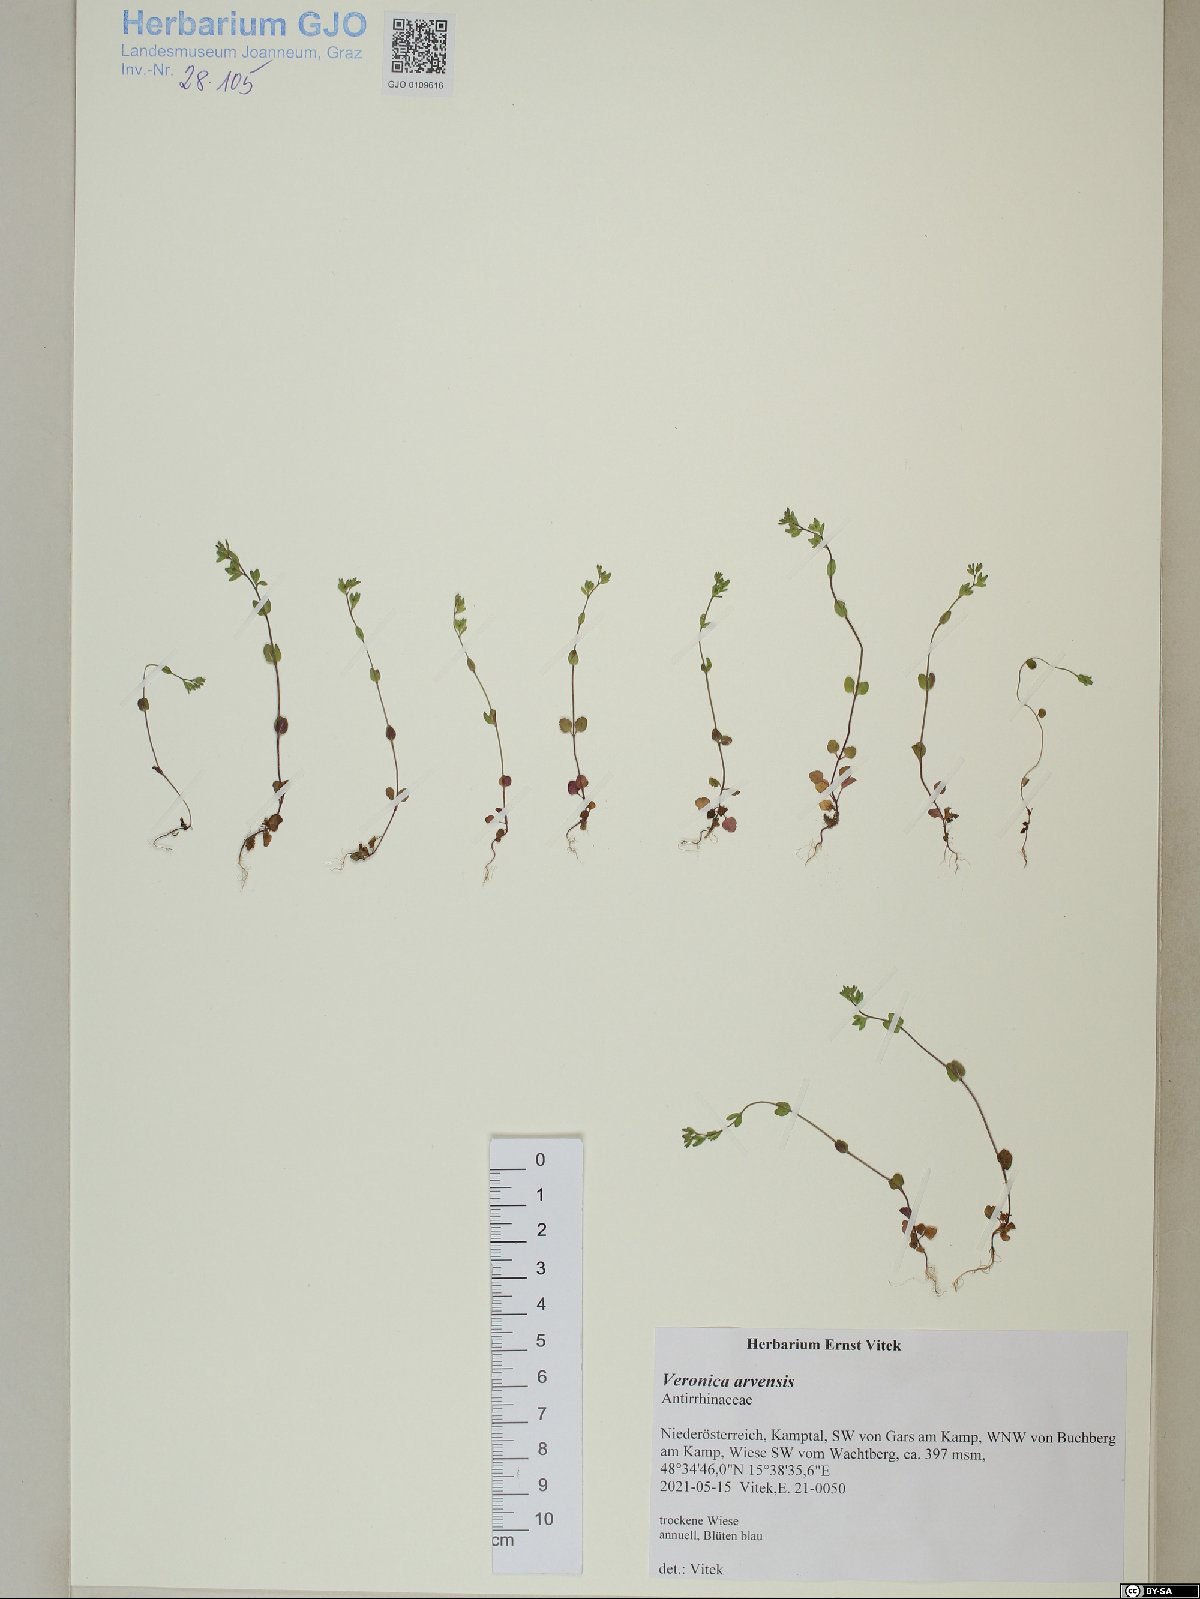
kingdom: Plantae
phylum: Tracheophyta
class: Magnoliopsida
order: Lamiales
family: Plantaginaceae
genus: Veronica
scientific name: Veronica arvensis
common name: Corn speedwell
